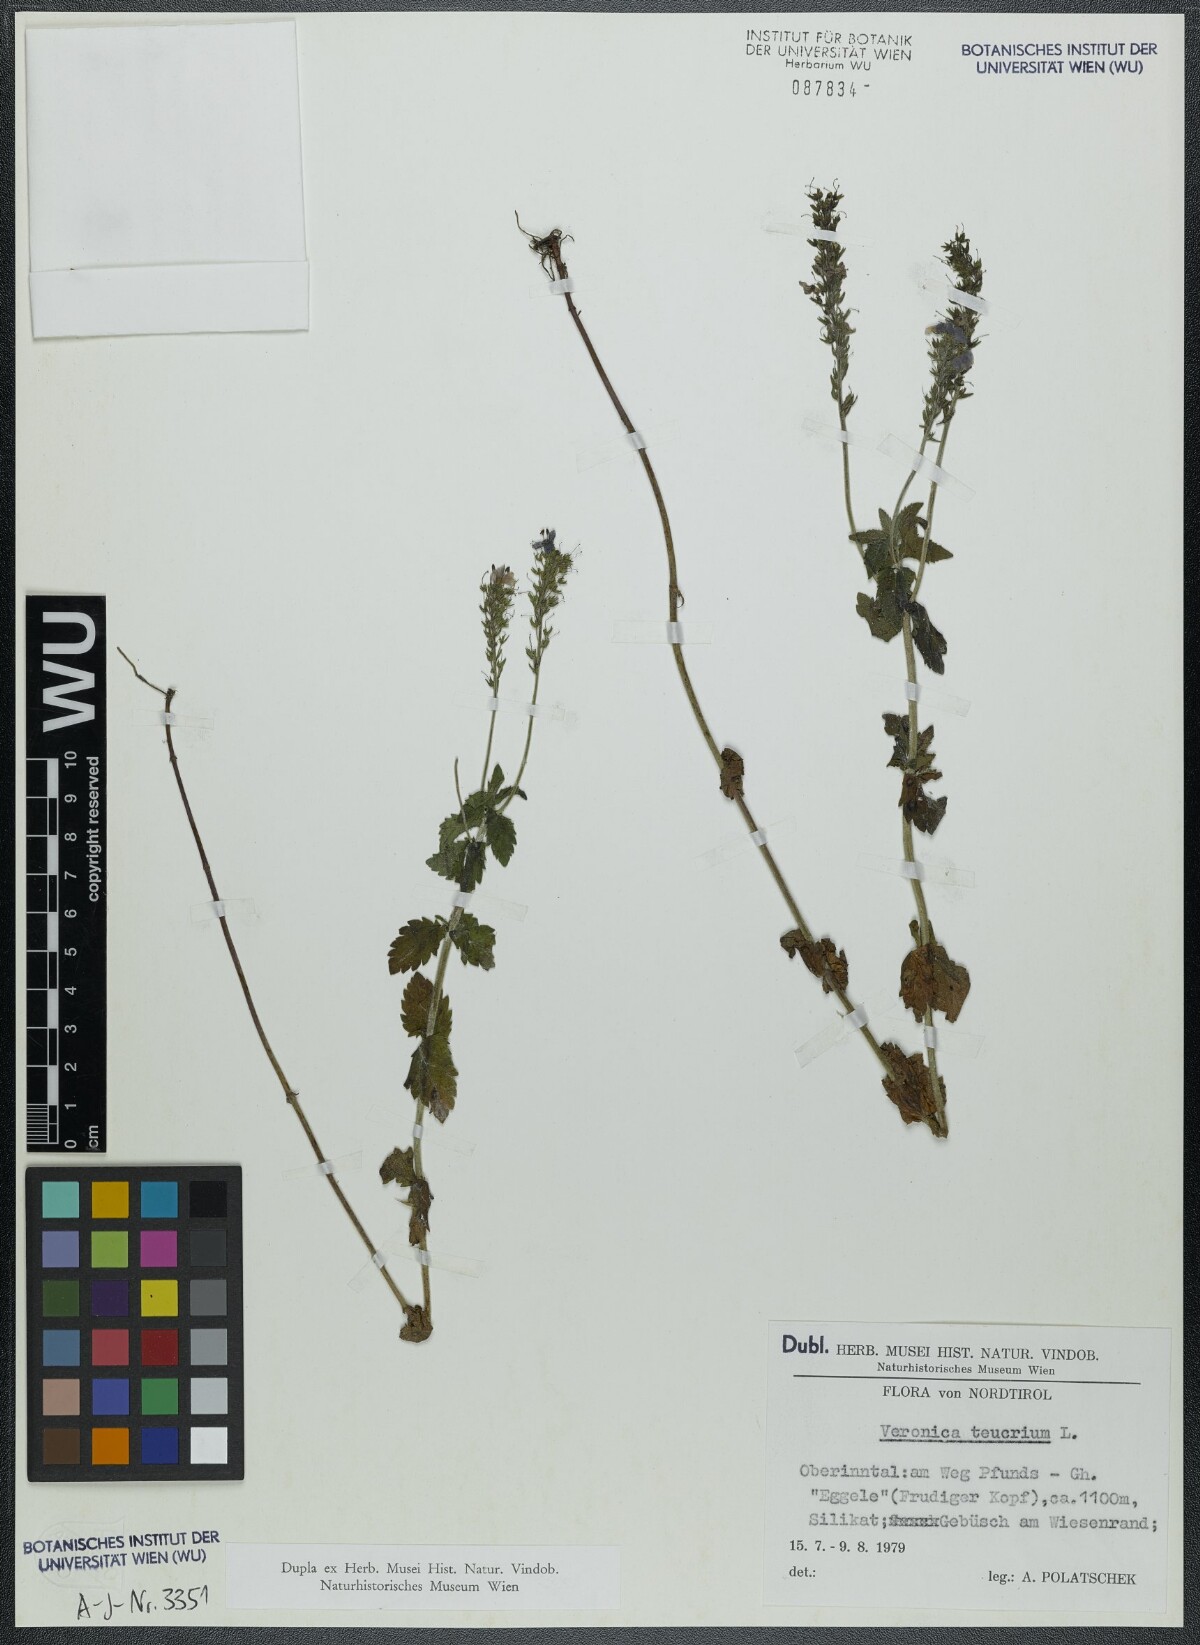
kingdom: Plantae
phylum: Tracheophyta
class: Magnoliopsida
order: Lamiales
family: Plantaginaceae
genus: Veronica
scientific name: Veronica teucrium
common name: Large speedwell
